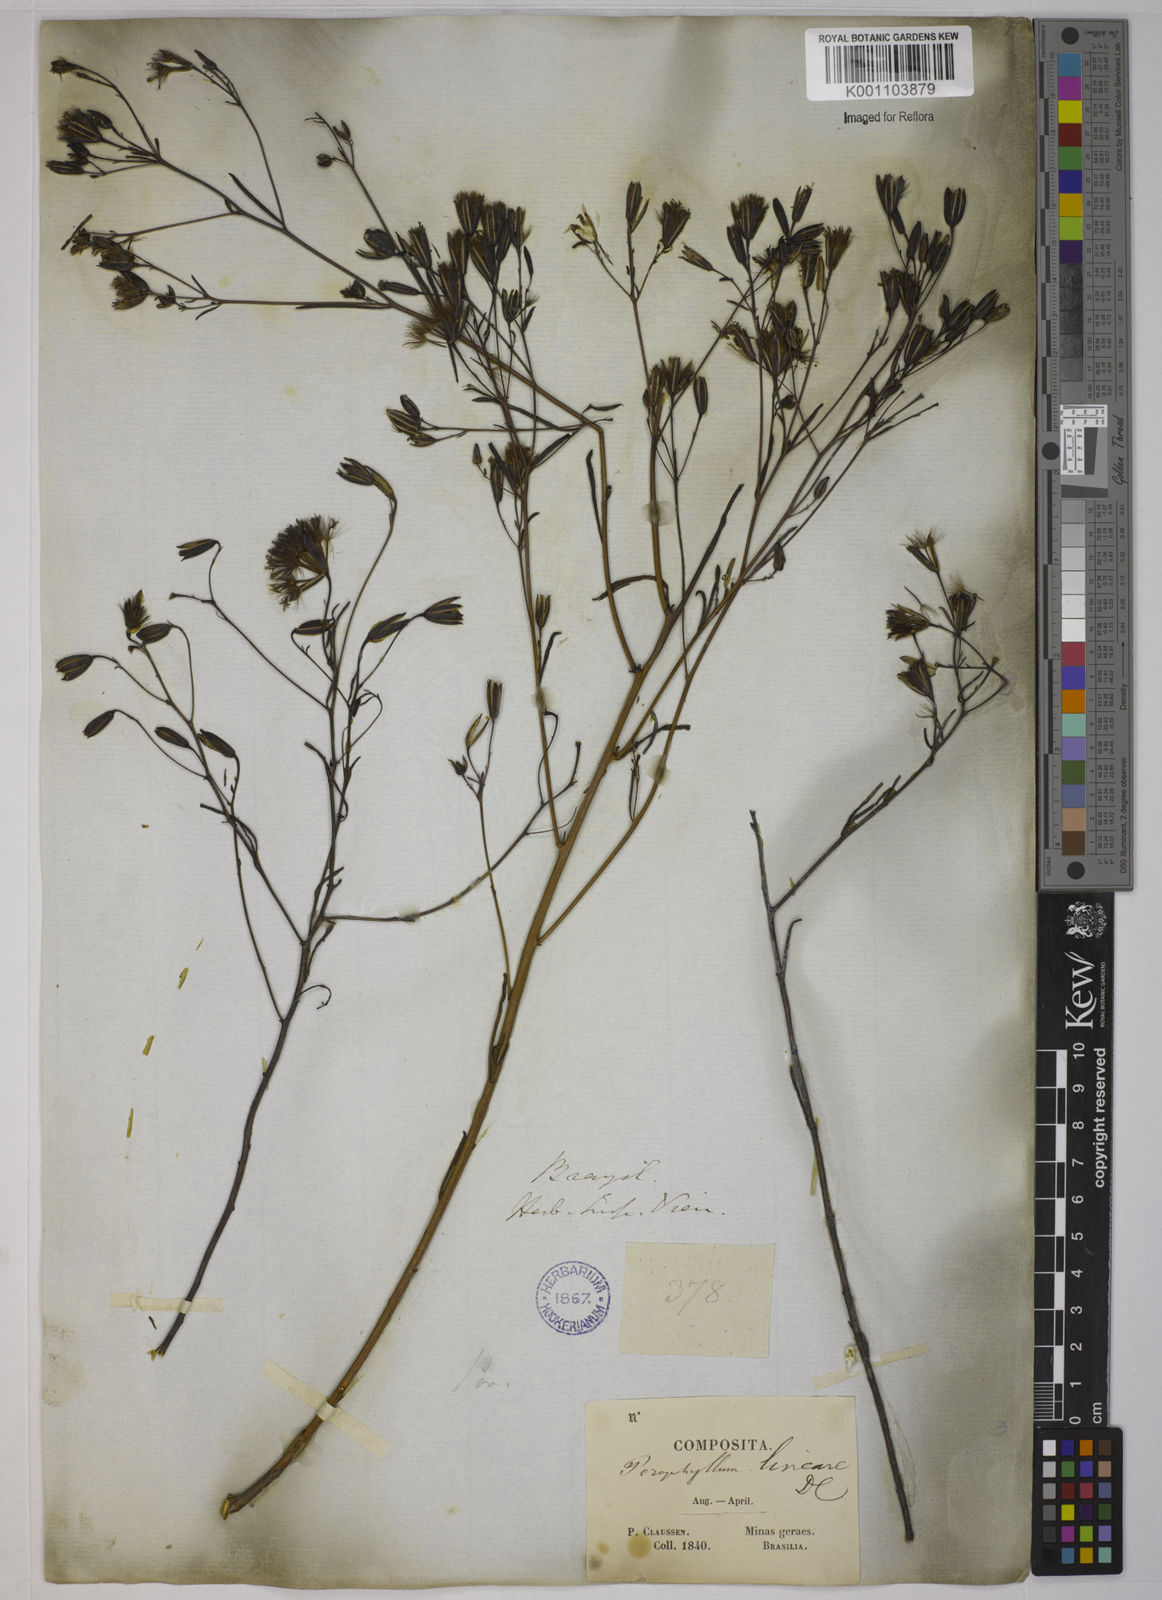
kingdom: Plantae
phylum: Tracheophyta
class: Magnoliopsida
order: Asterales
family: Asteraceae
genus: Porophyllum
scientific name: Porophyllum obscurum
